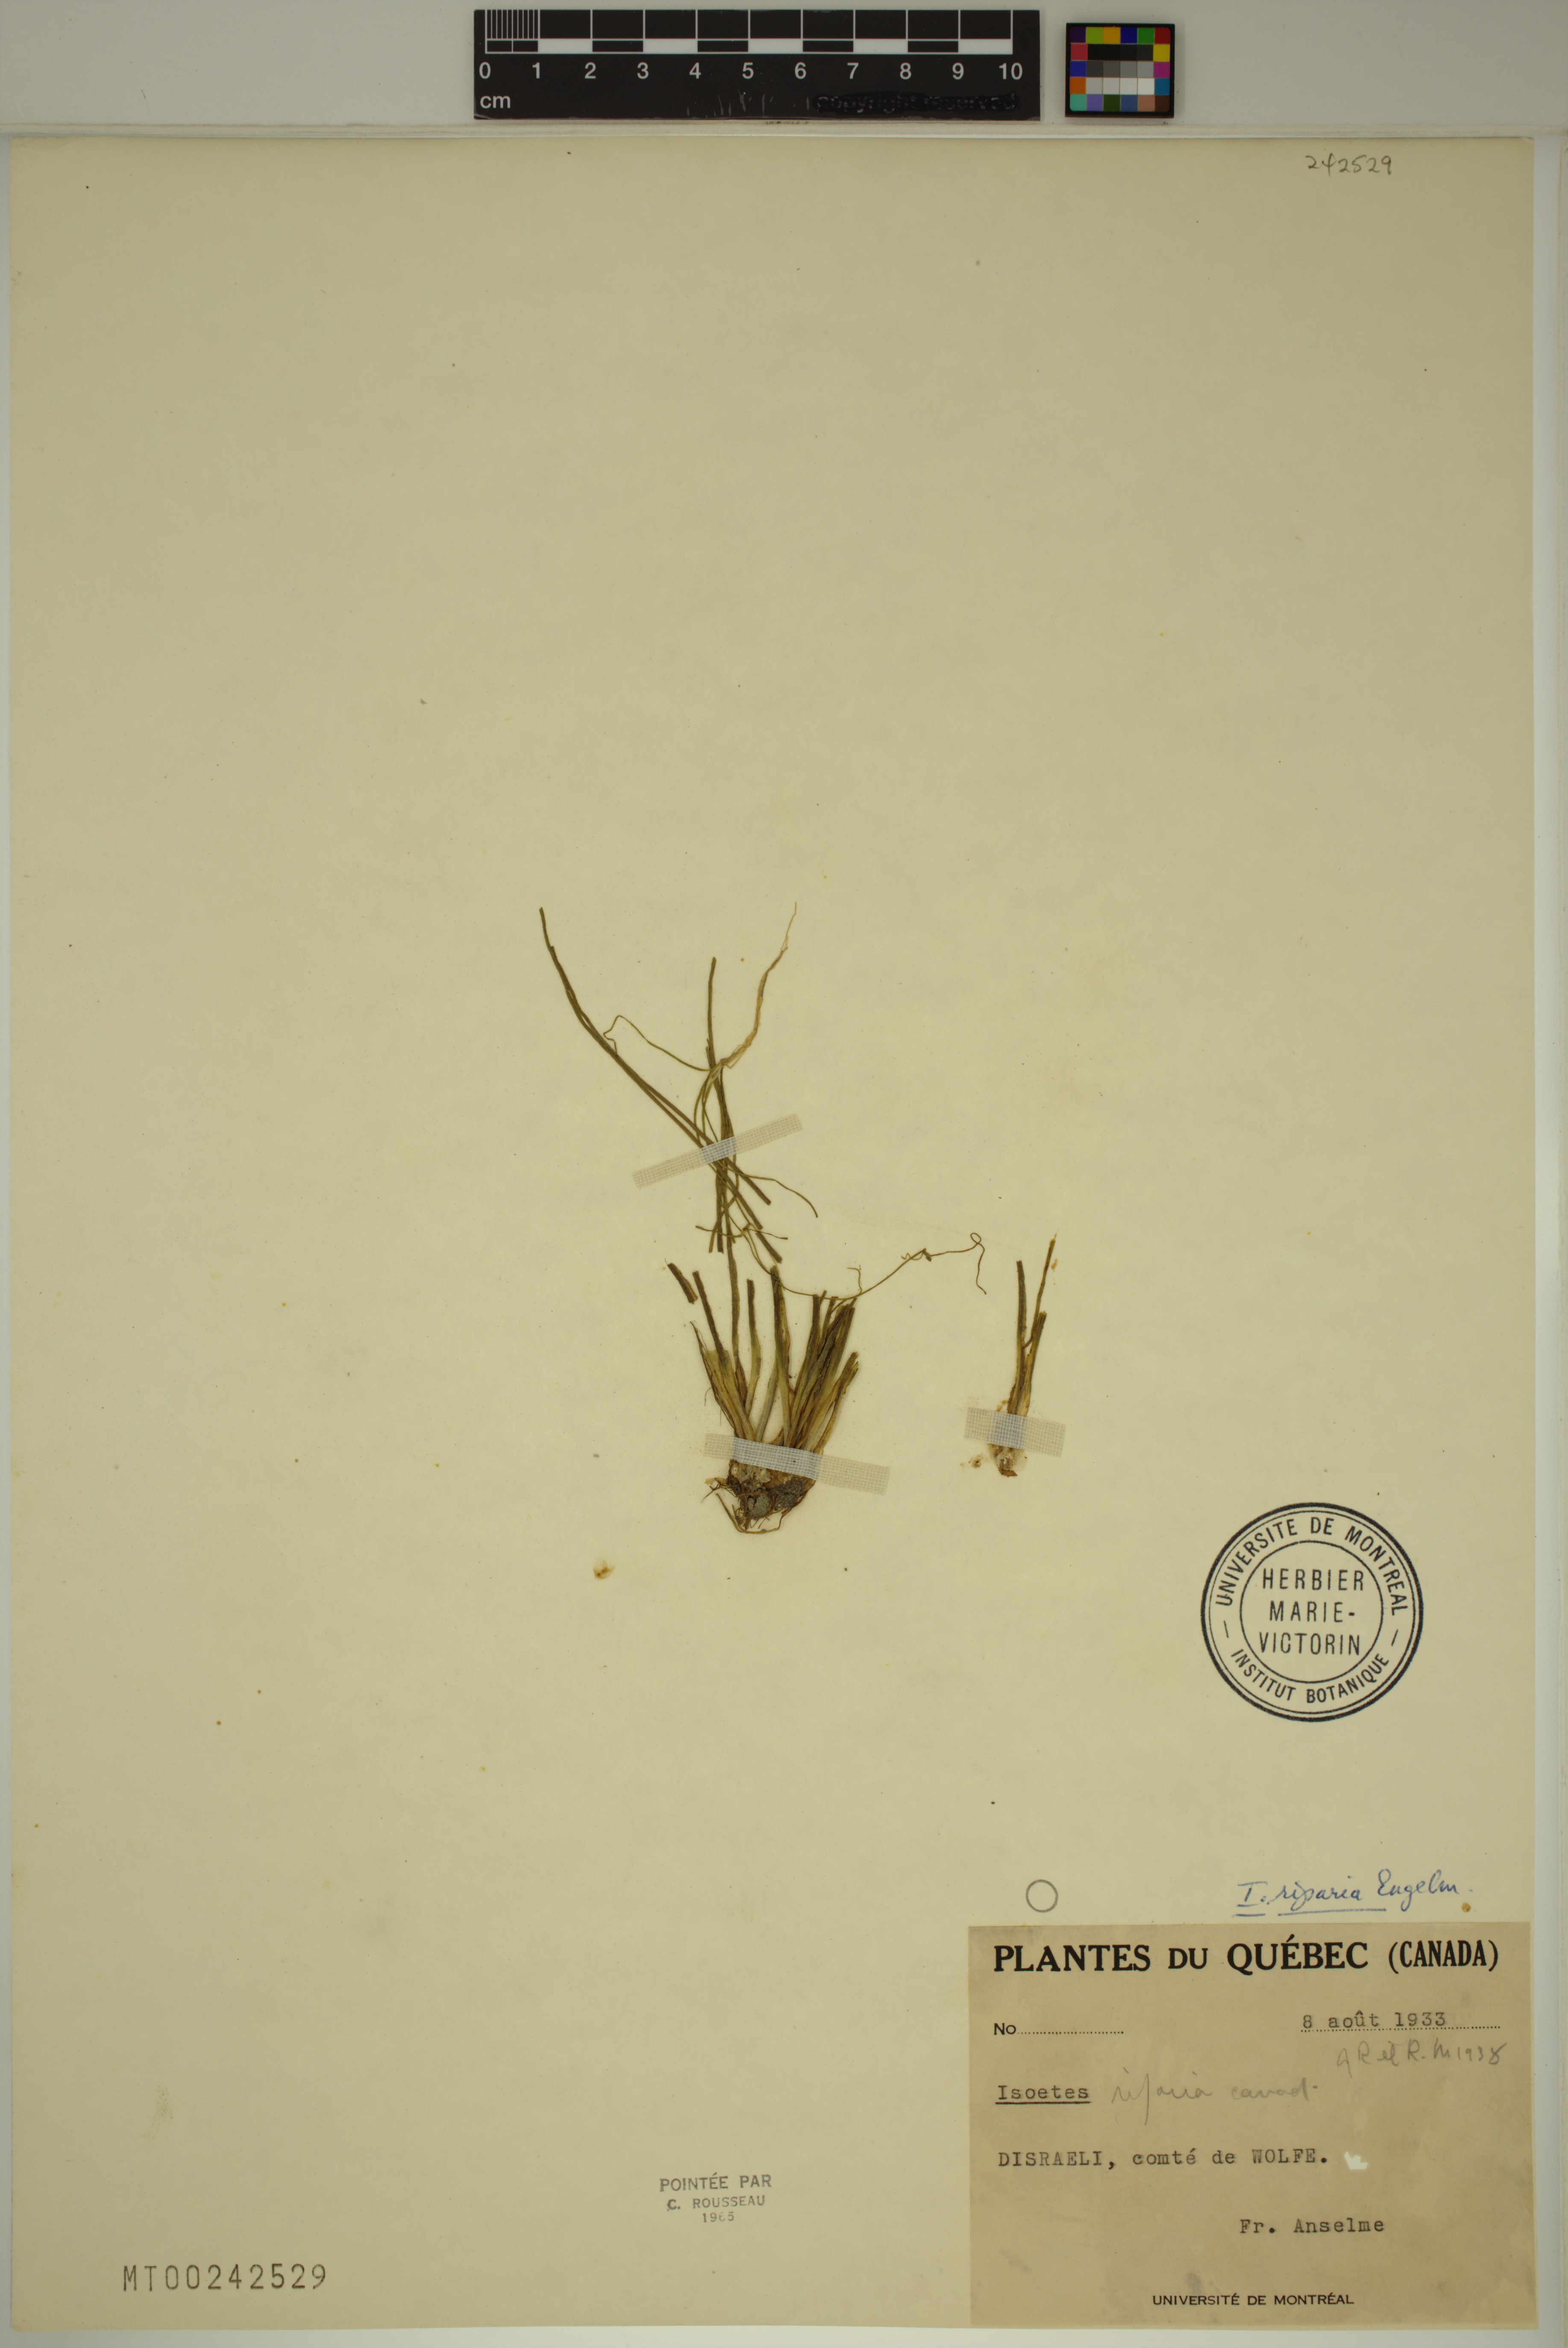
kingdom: Plantae
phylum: Tracheophyta
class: Lycopodiopsida
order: Isoetales
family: Isoetaceae
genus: Isoetes
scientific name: Isoetes septentrionalis
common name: Northern quillwort
